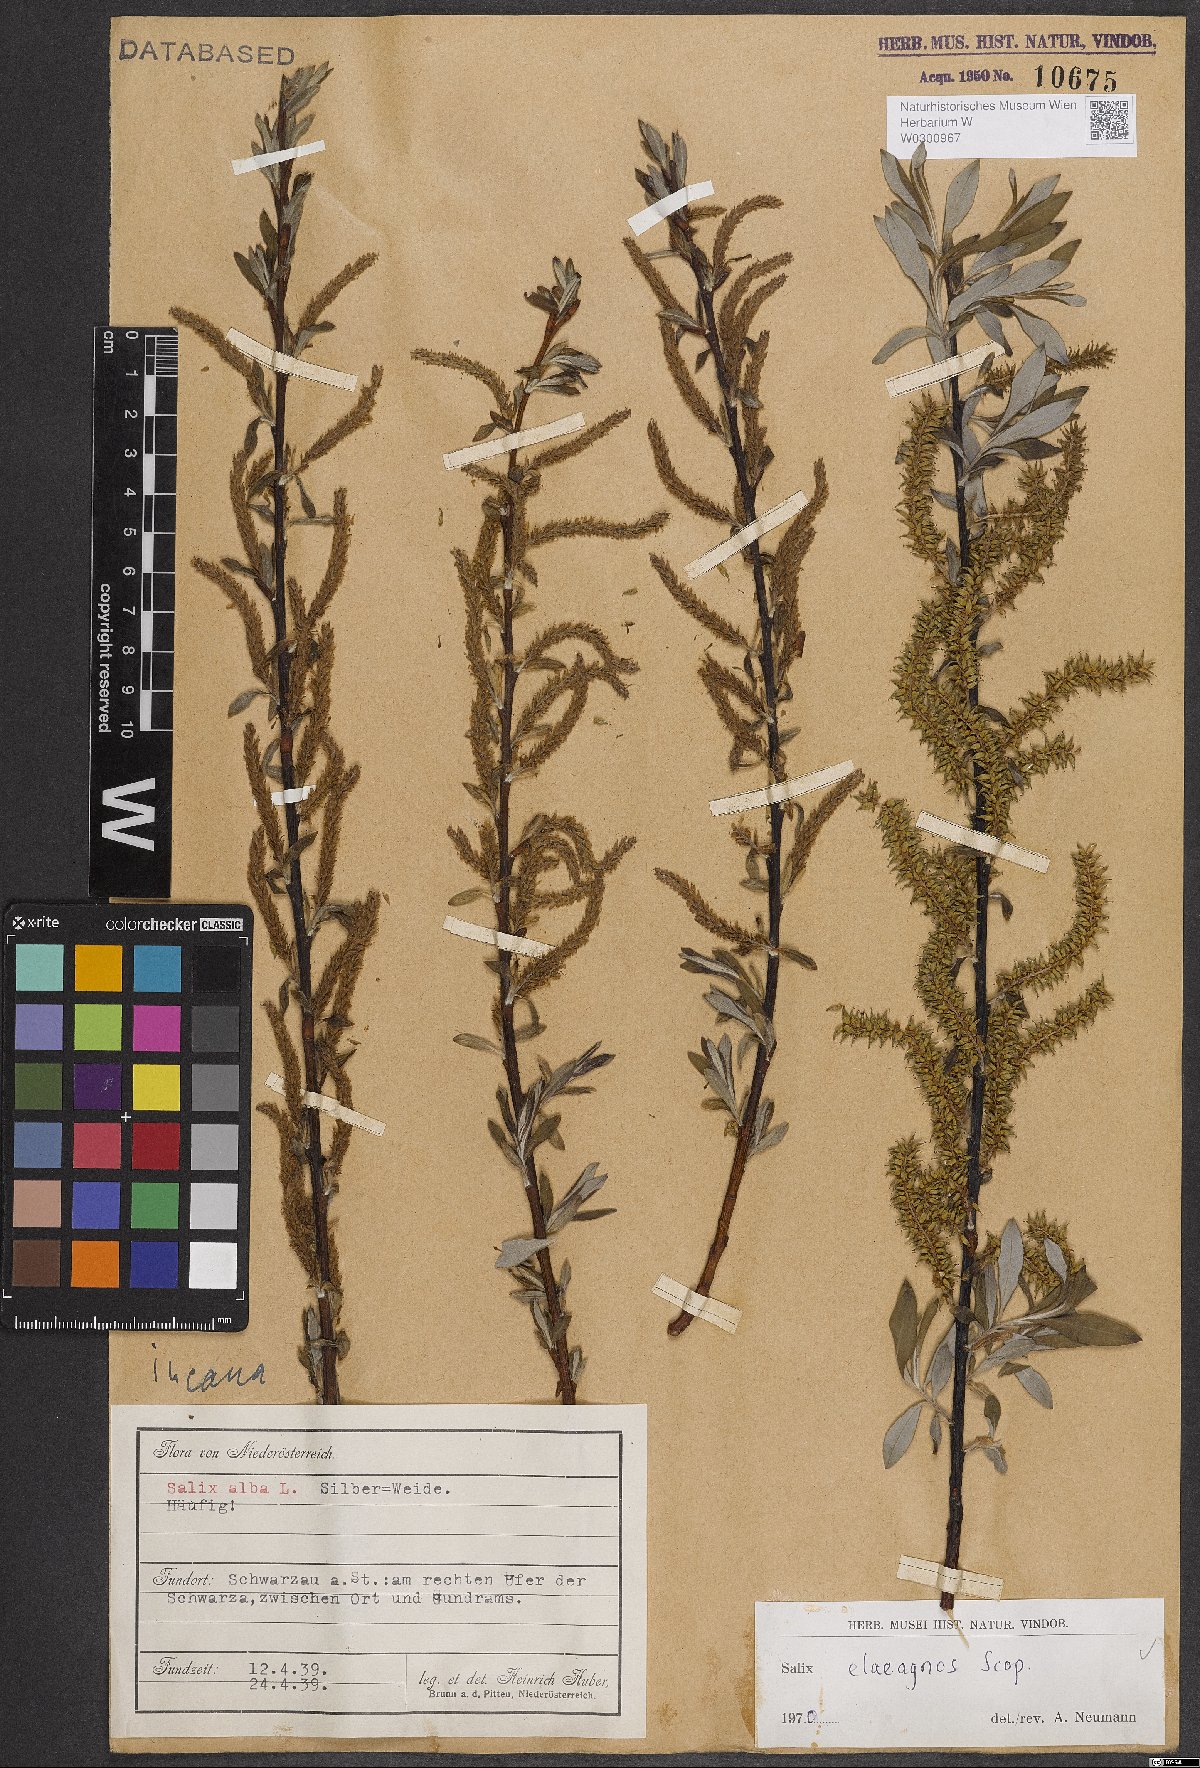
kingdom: Plantae
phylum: Tracheophyta
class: Magnoliopsida
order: Malpighiales
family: Salicaceae
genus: Salix
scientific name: Salix eleagnos
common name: Elaeagnus willow
